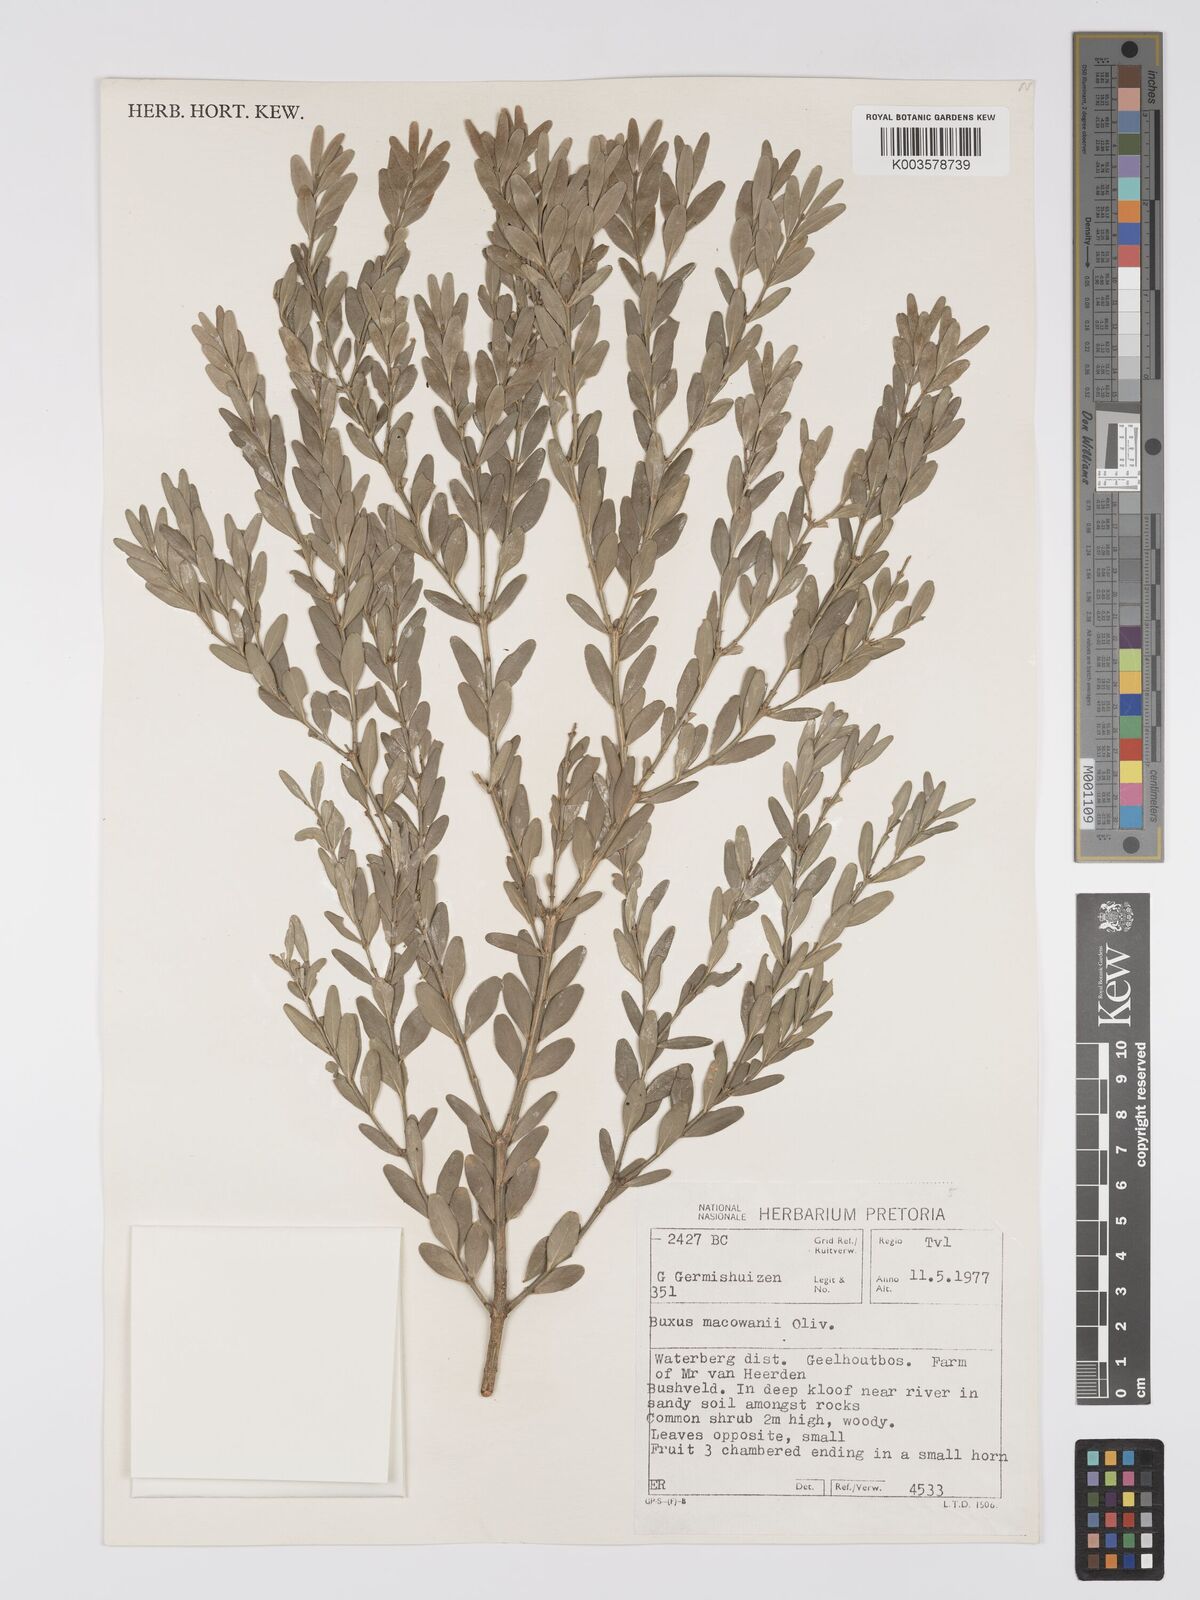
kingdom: Plantae
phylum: Tracheophyta
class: Magnoliopsida
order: Buxales
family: Buxaceae
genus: Buxus
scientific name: Buxus macowanii
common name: Cape box
